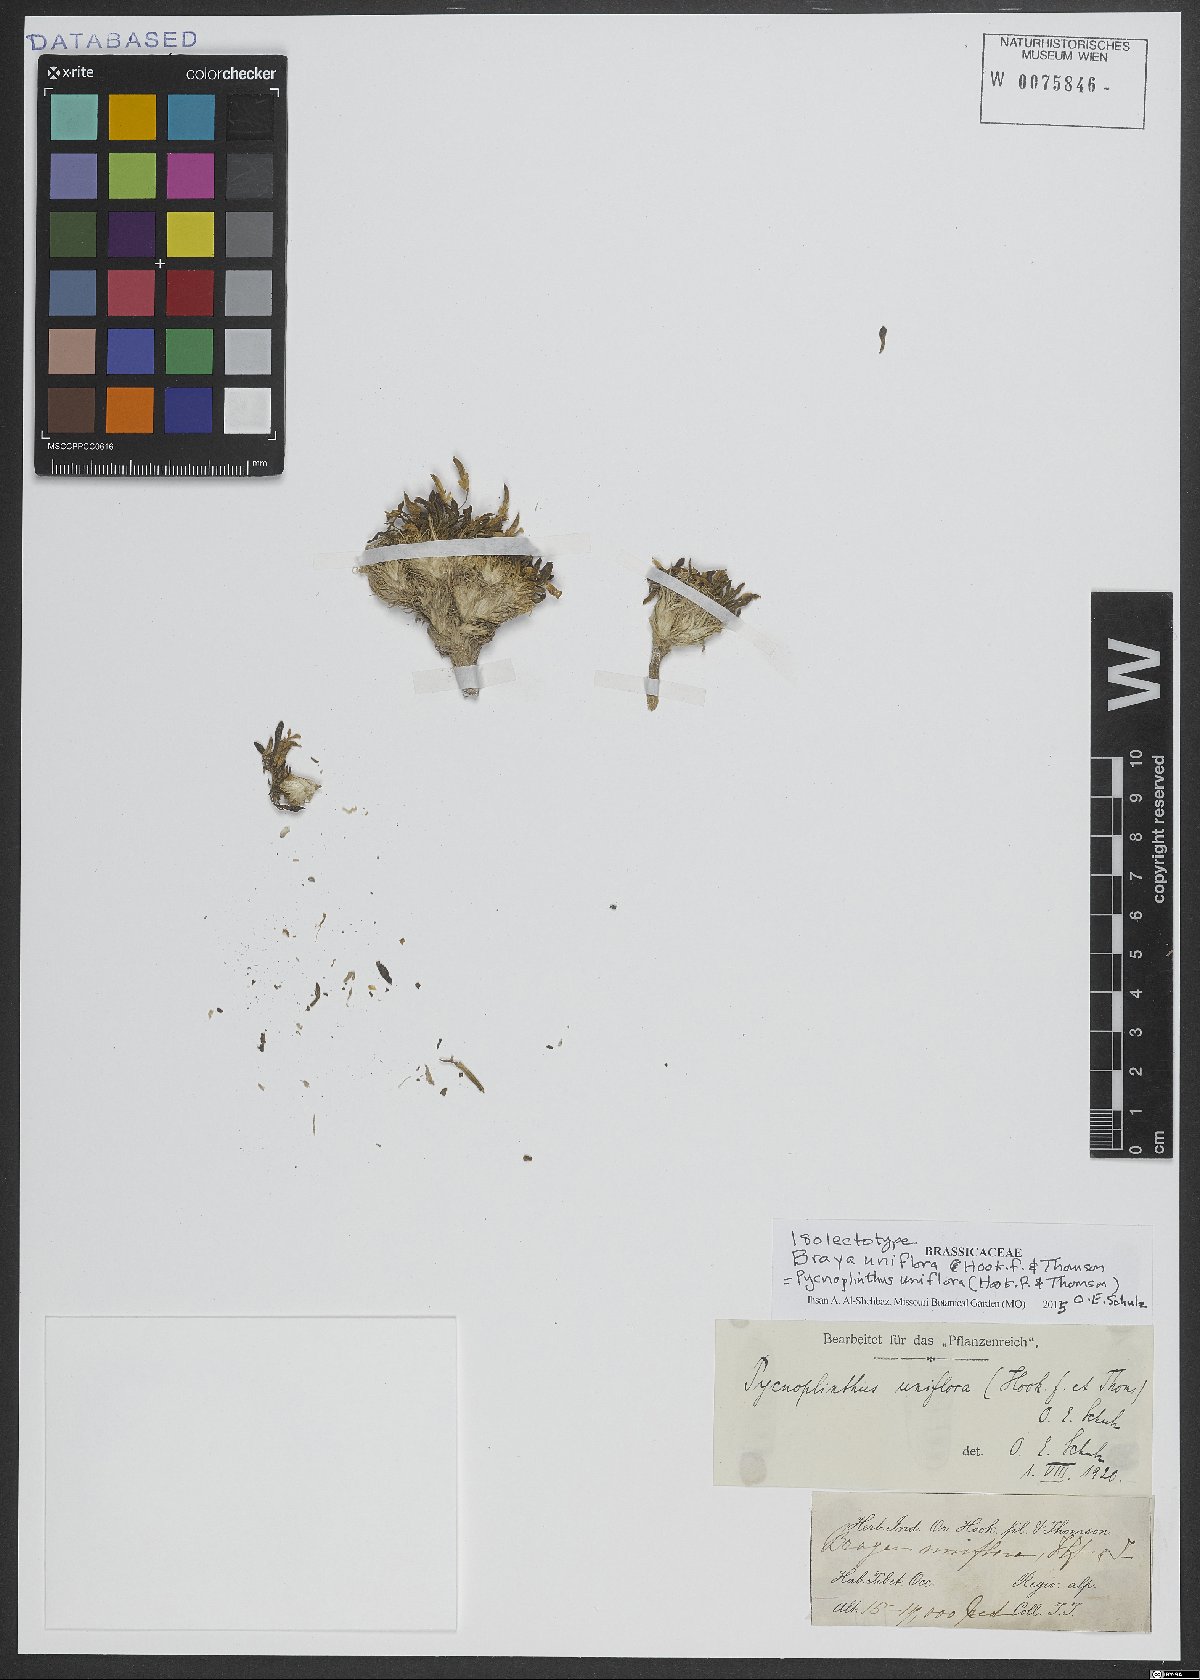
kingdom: Plantae
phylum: Tracheophyta
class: Magnoliopsida
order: Brassicales
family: Brassicaceae
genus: Pycnoplinthus
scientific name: Pycnoplinthus uniflora
